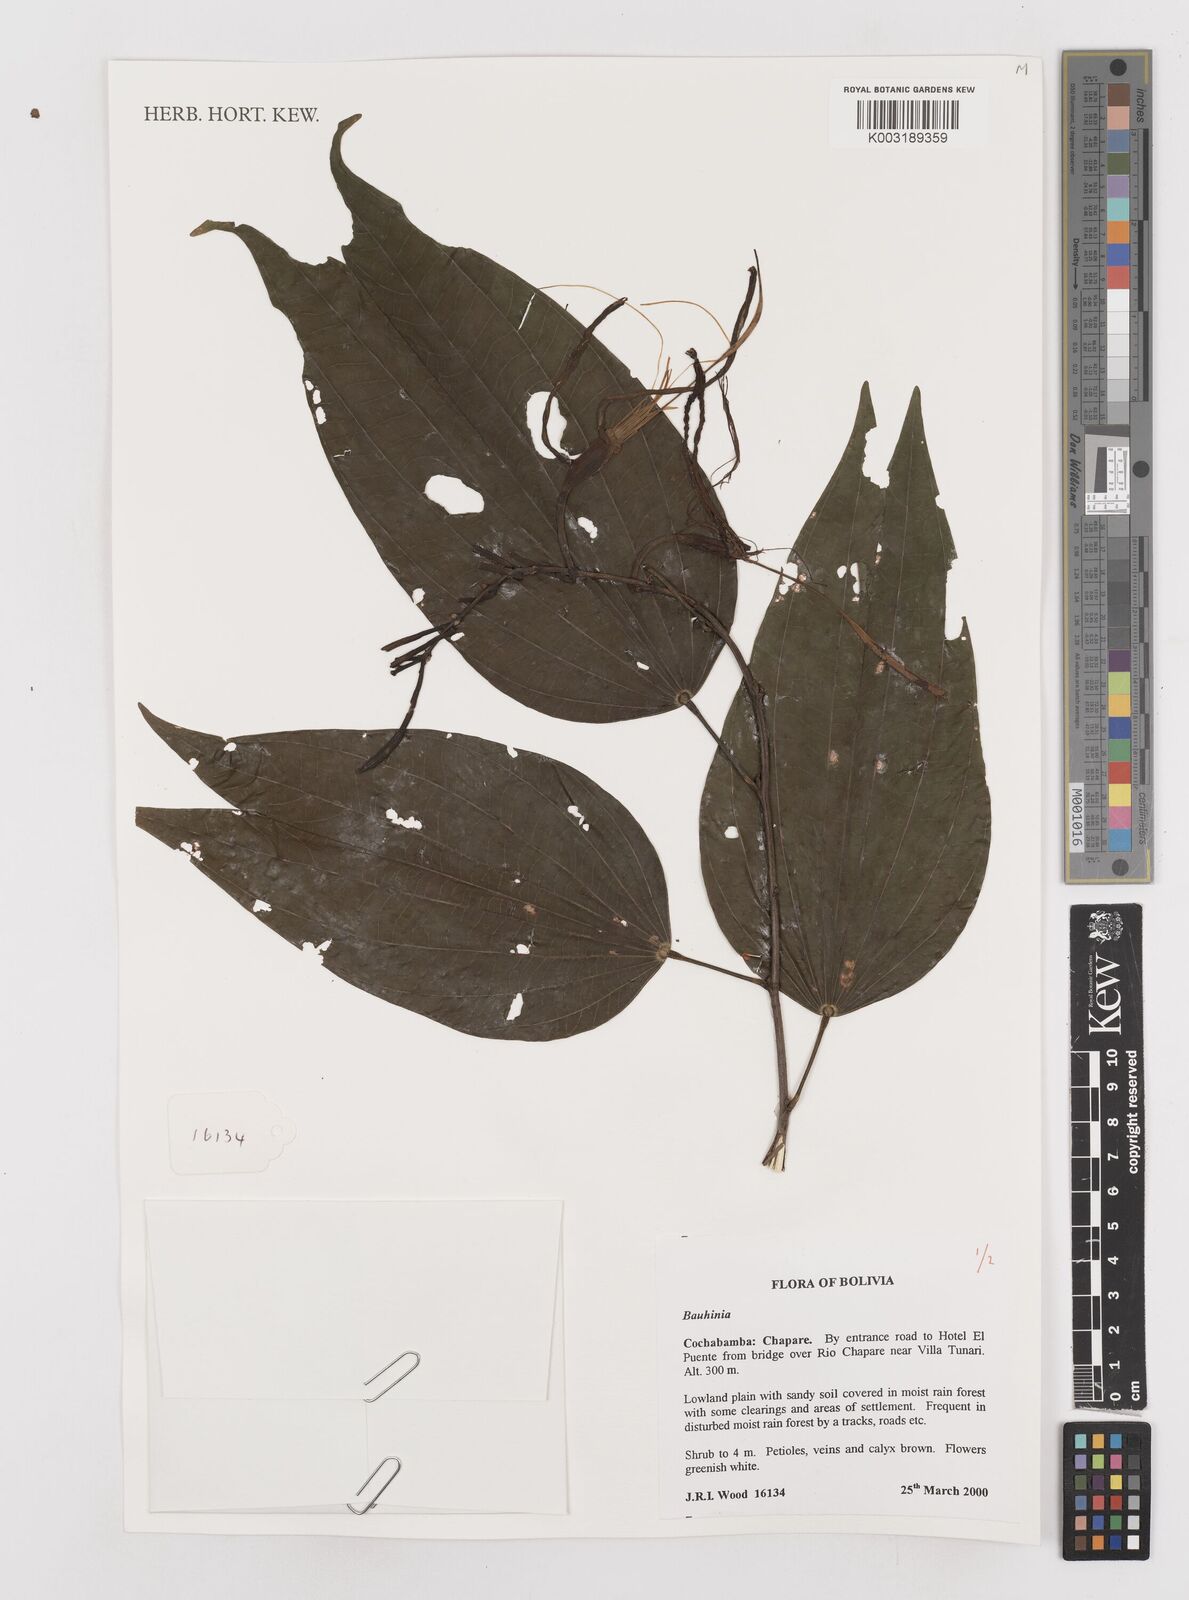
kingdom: Plantae
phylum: Tracheophyta
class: Magnoliopsida
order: Fabales
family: Fabaceae
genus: Bauhinia
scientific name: Bauhinia
